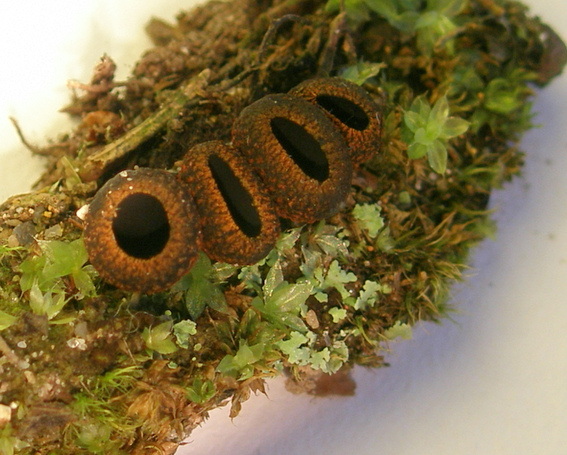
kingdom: Fungi
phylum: Ascomycota
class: Pezizomycetes
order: Pezizales
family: Sarcosomataceae
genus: Plectania
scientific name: Plectania melastoma
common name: rustbæger
